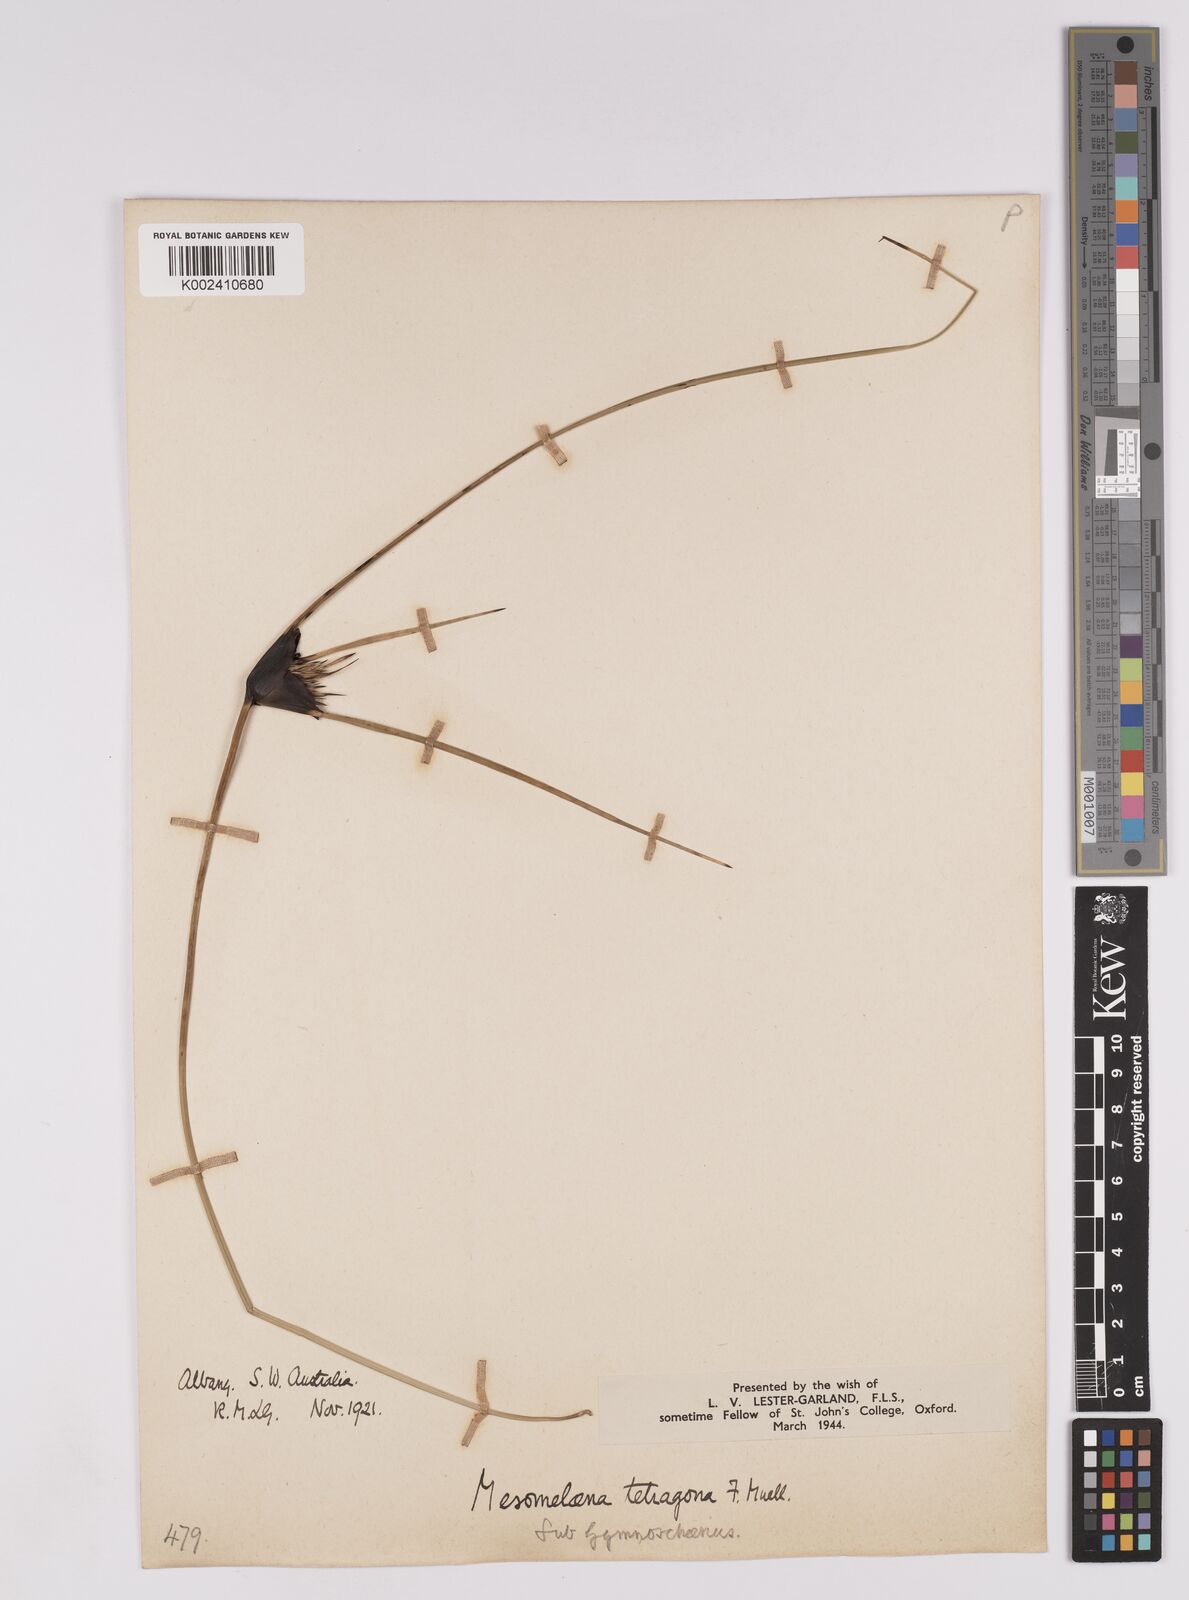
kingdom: Plantae
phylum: Tracheophyta
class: Liliopsida
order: Poales
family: Cyperaceae
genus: Mesomelaena
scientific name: Mesomelaena tetragona
